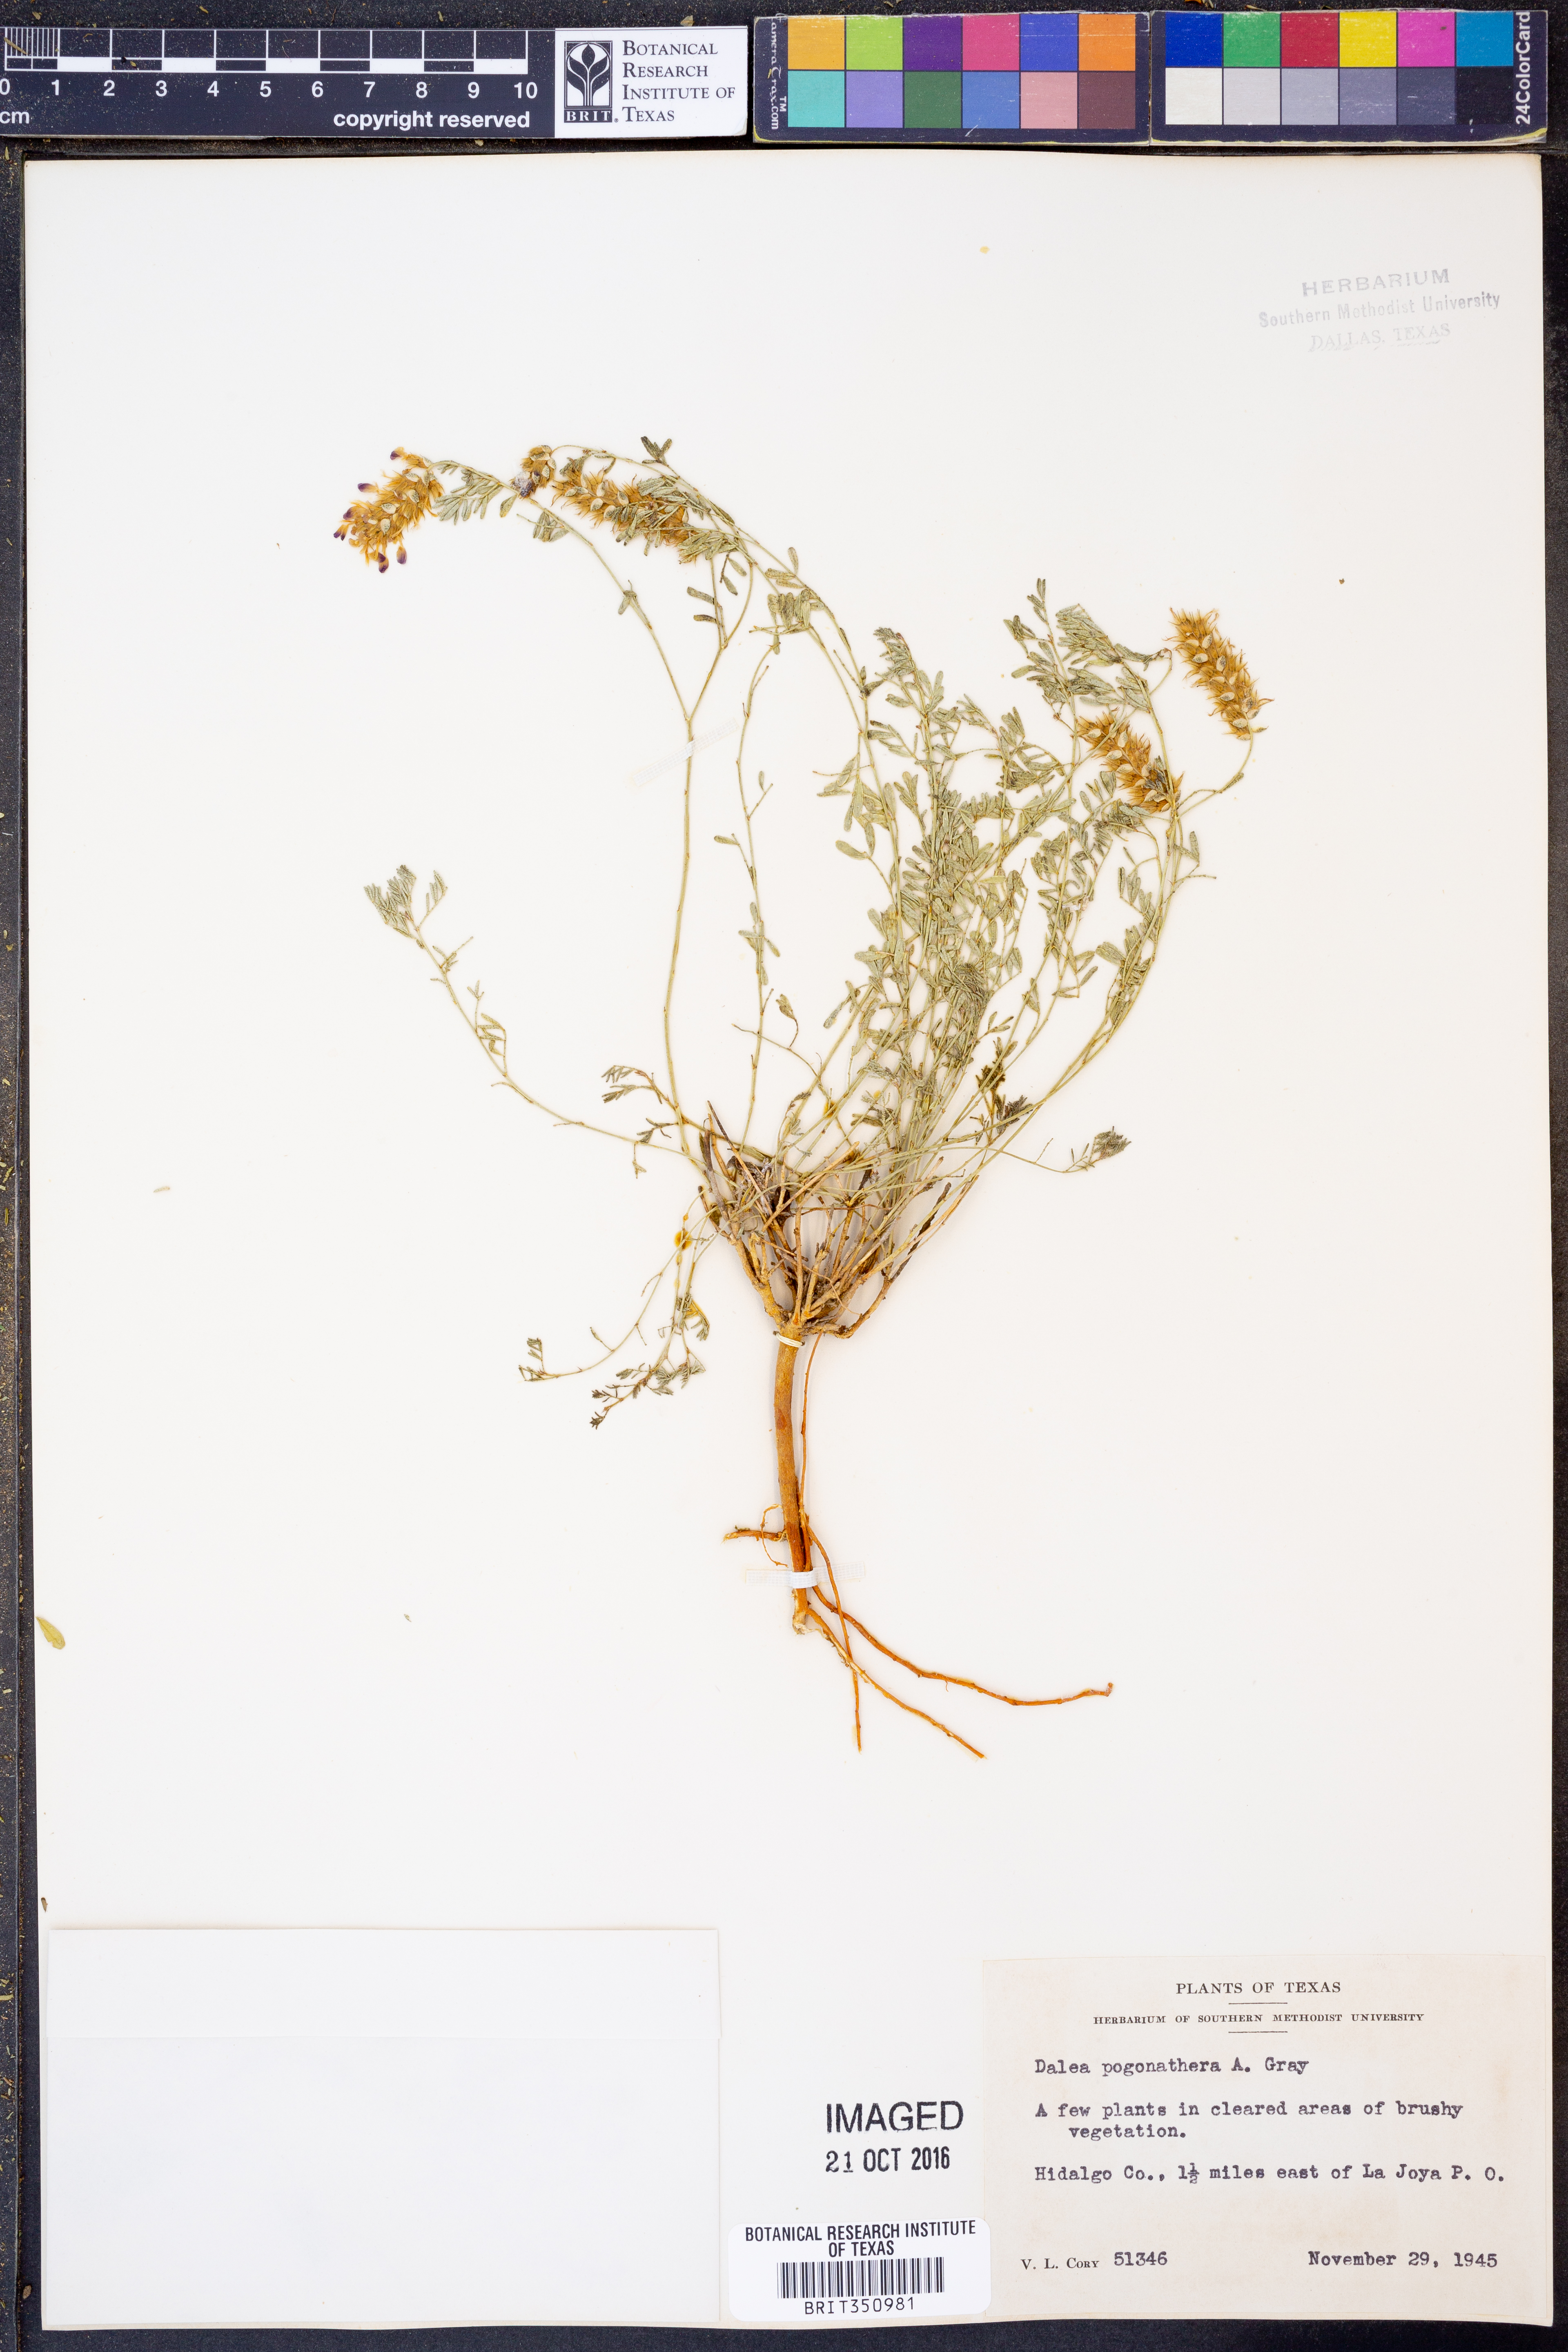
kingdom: Plantae
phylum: Tracheophyta
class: Magnoliopsida
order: Fabales
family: Fabaceae
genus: Dalea
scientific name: Dalea pogonathera
